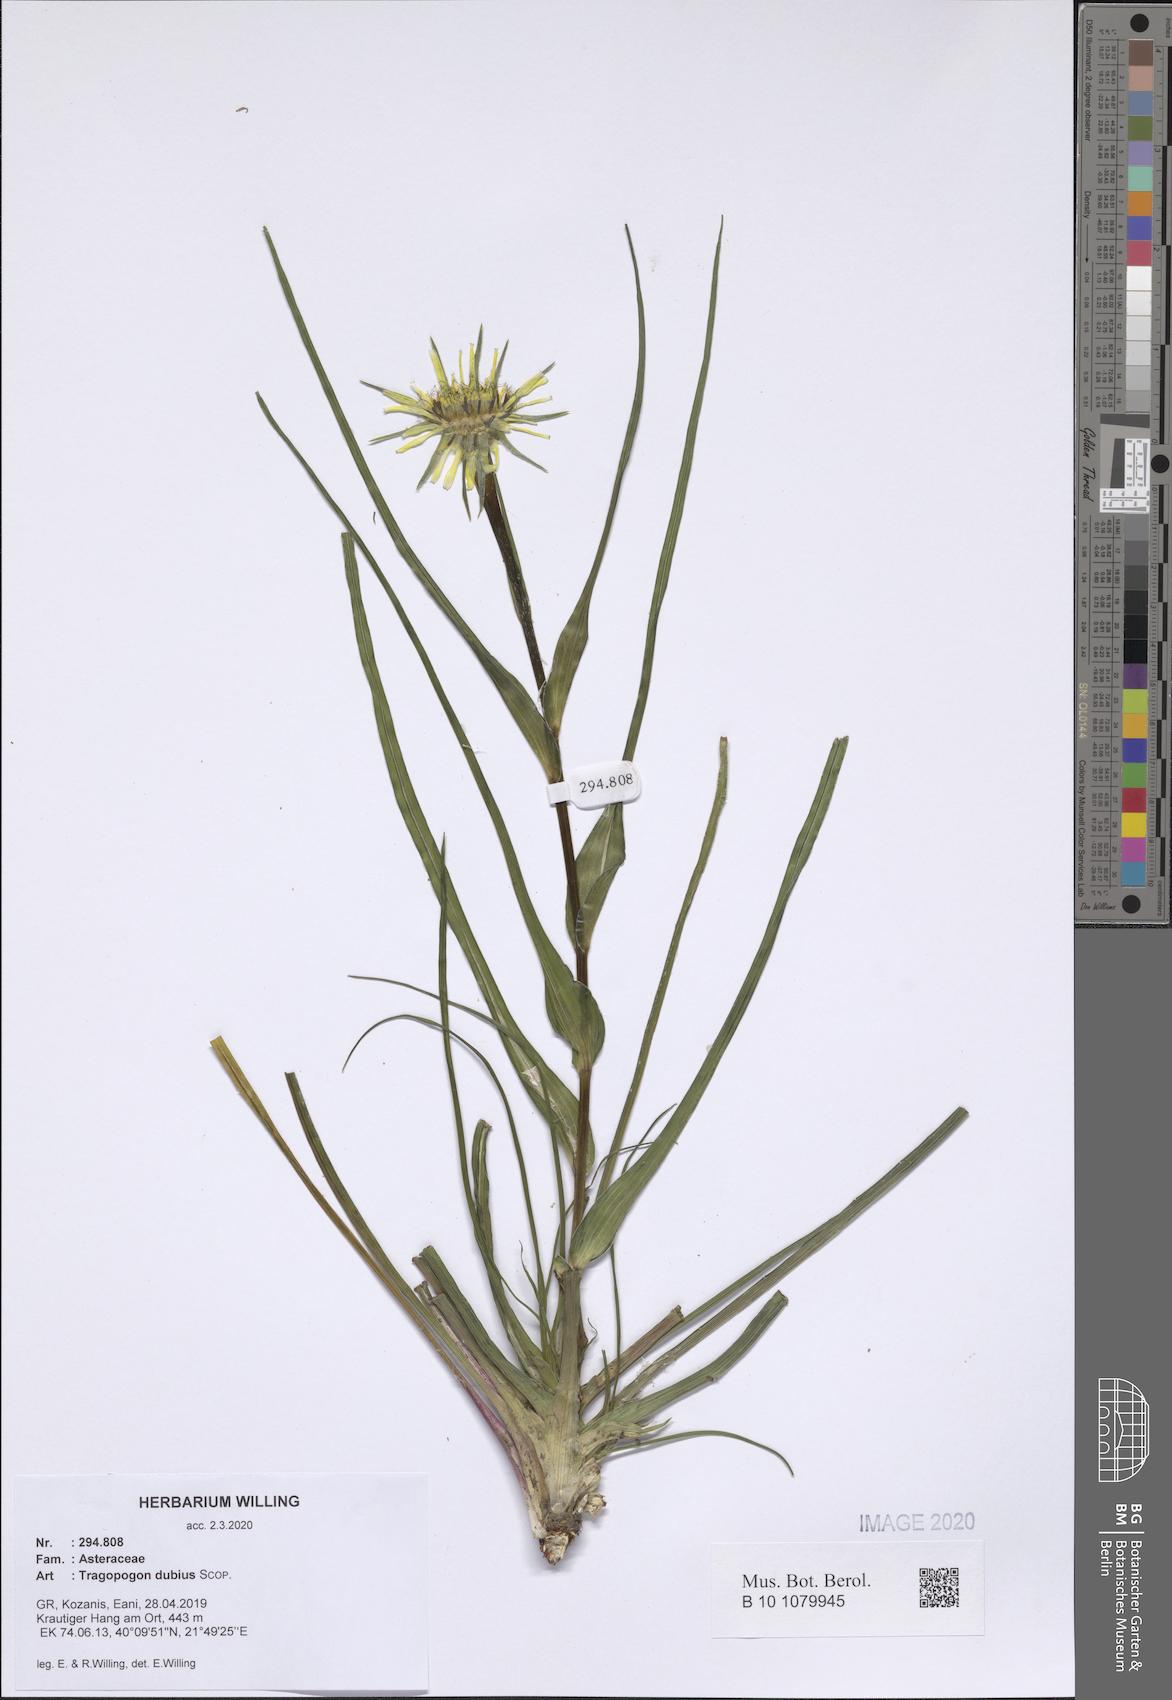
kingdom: Plantae
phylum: Tracheophyta
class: Magnoliopsida
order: Asterales
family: Asteraceae
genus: Tragopogon
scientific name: Tragopogon dubius
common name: Yellow salsify
